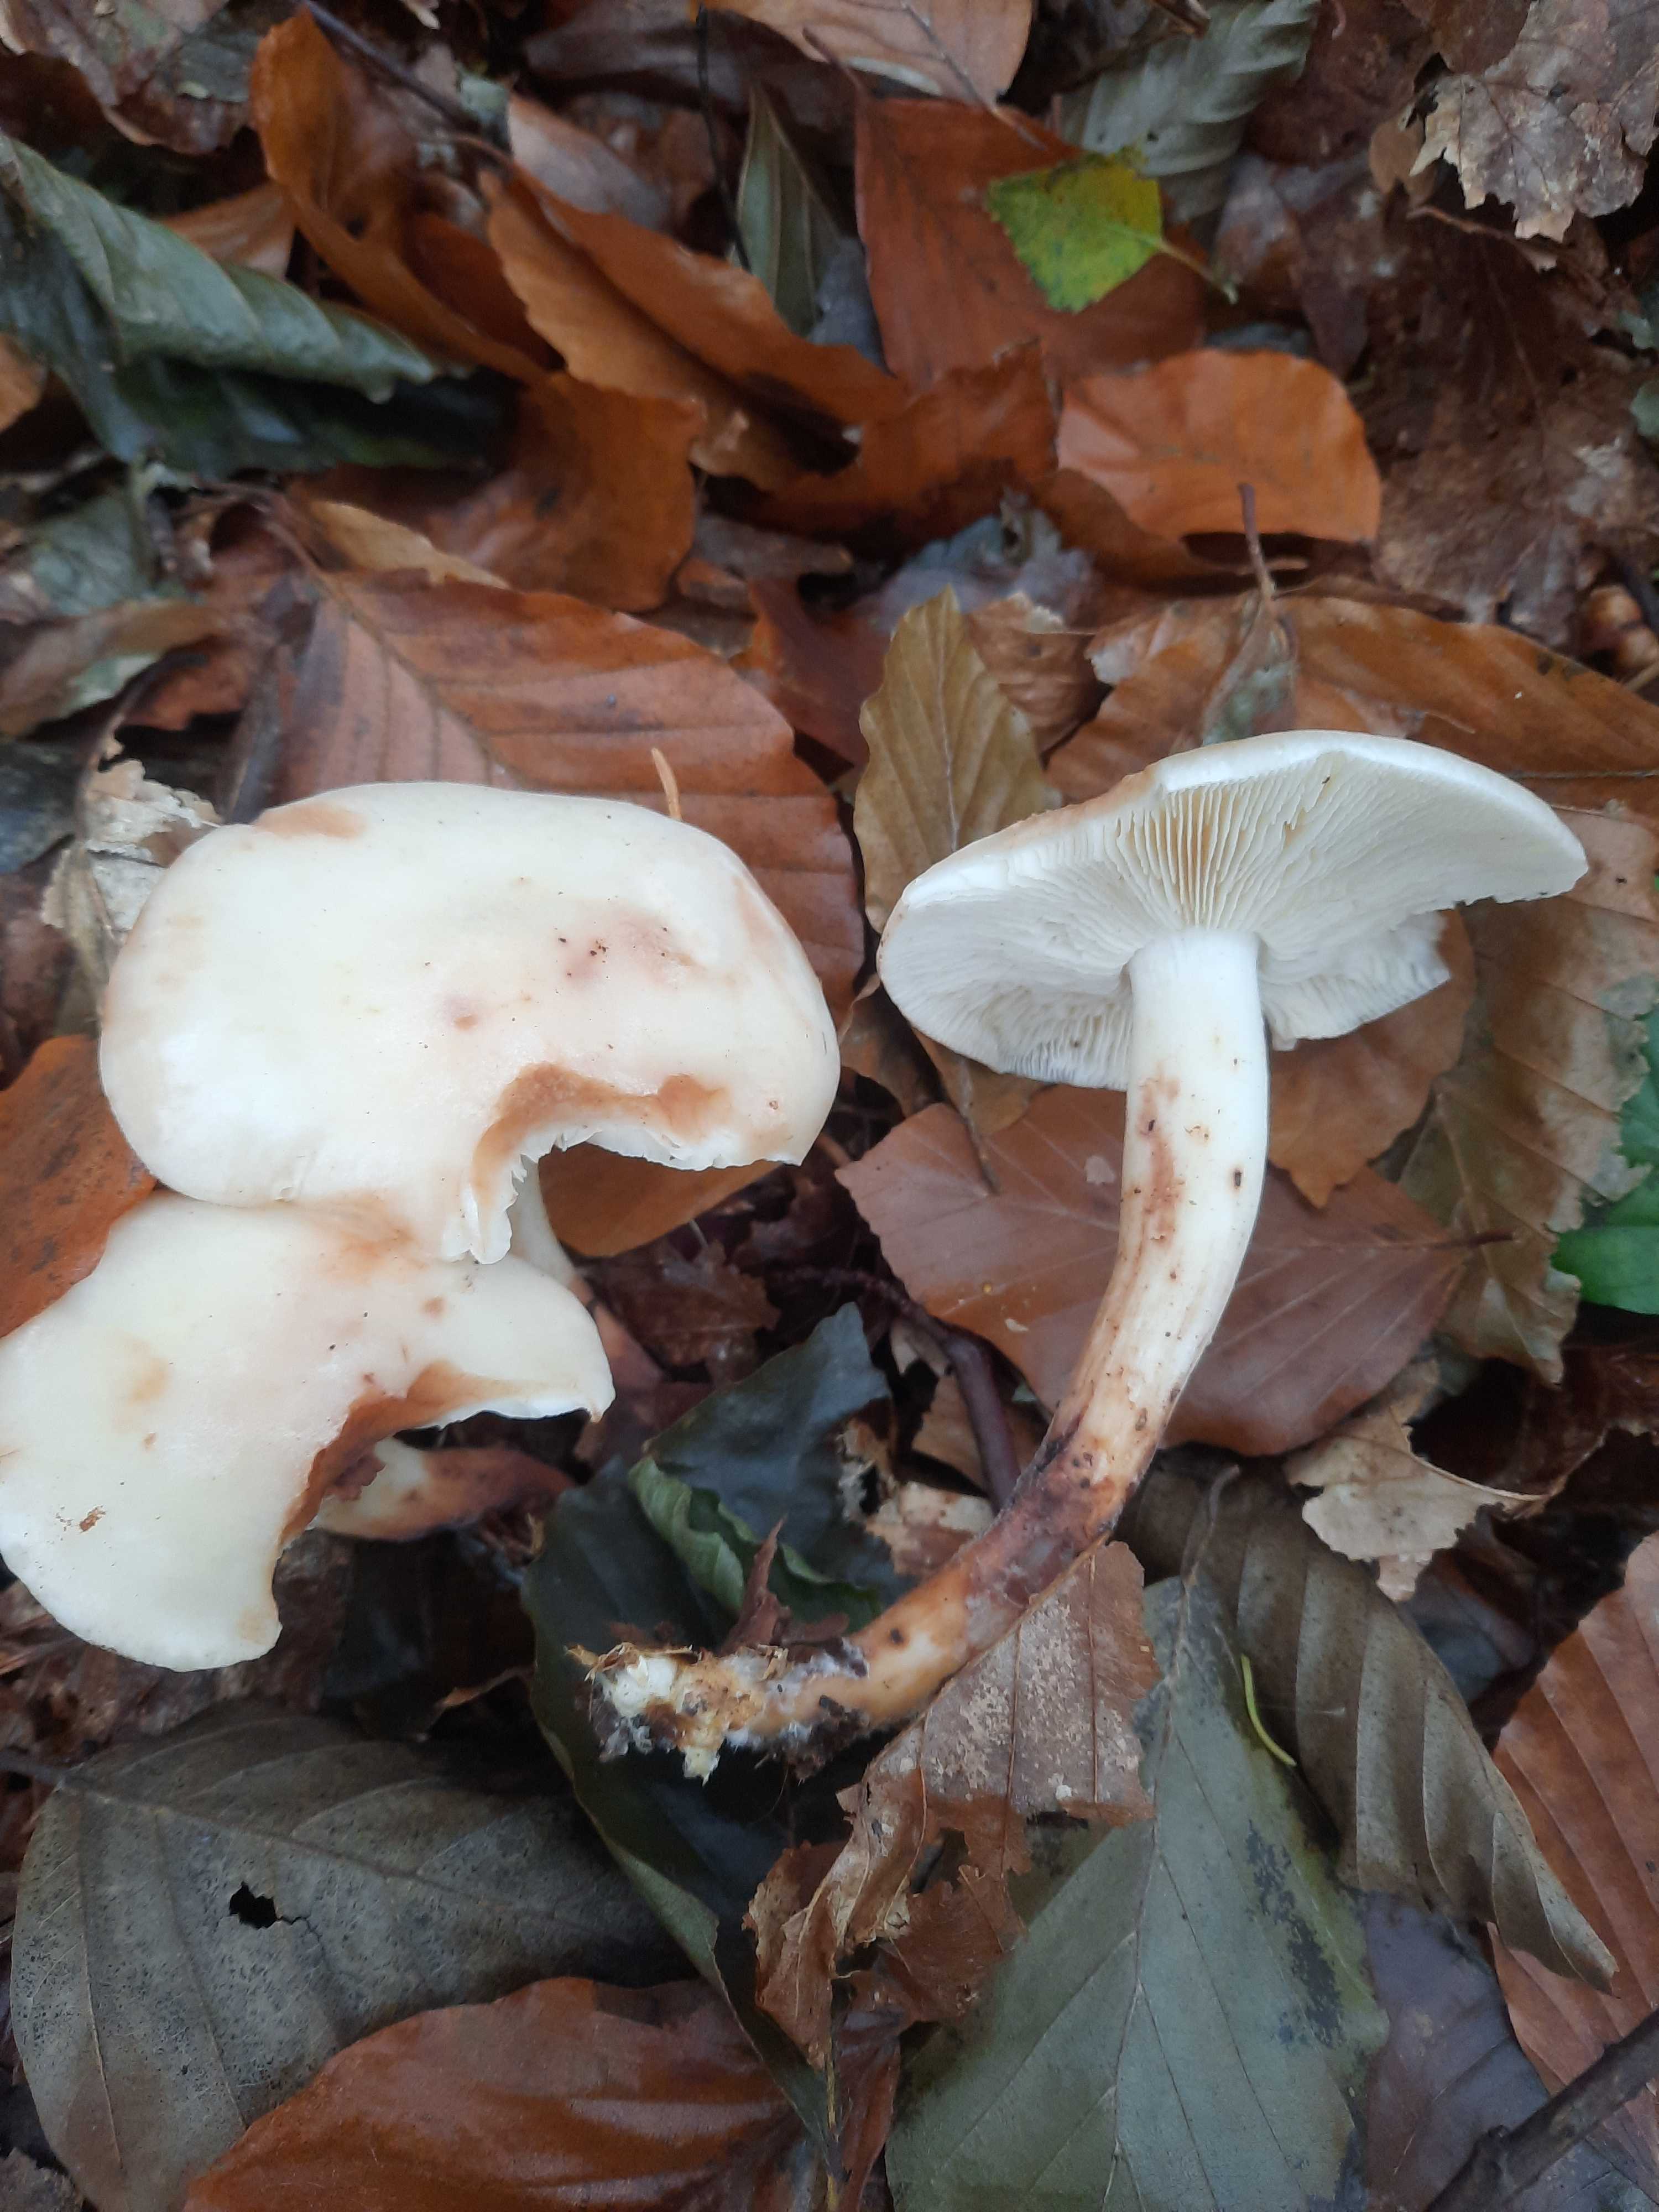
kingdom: Fungi
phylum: Basidiomycota
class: Agaricomycetes
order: Agaricales
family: Omphalotaceae
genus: Rhodocollybia
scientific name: Rhodocollybia maculata
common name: plettet fladhat
